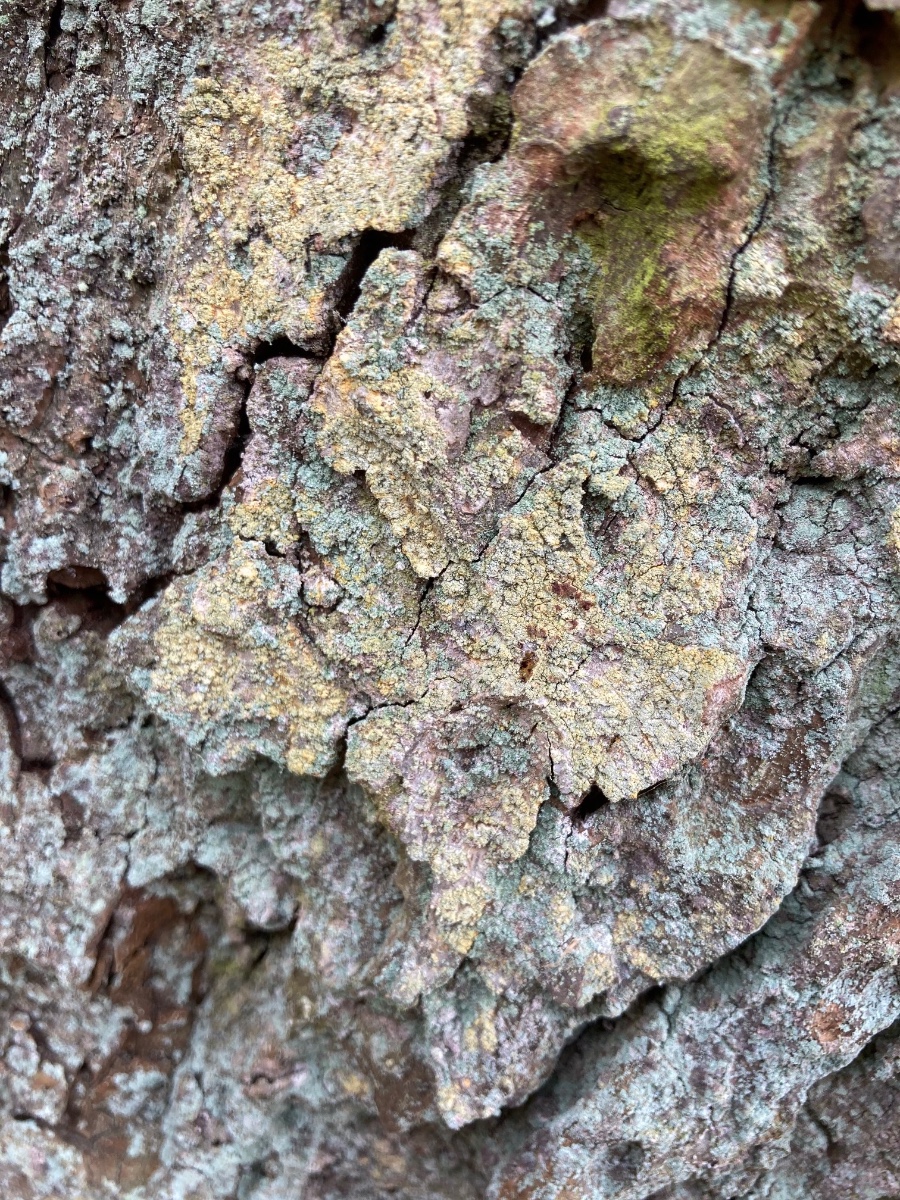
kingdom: Fungi
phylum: Ascomycota
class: Coniocybomycetes
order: Coniocybales
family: Coniocybaceae
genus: Chaenotheca
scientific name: Chaenotheca ferruginea
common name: rustbrun knappenålslav
